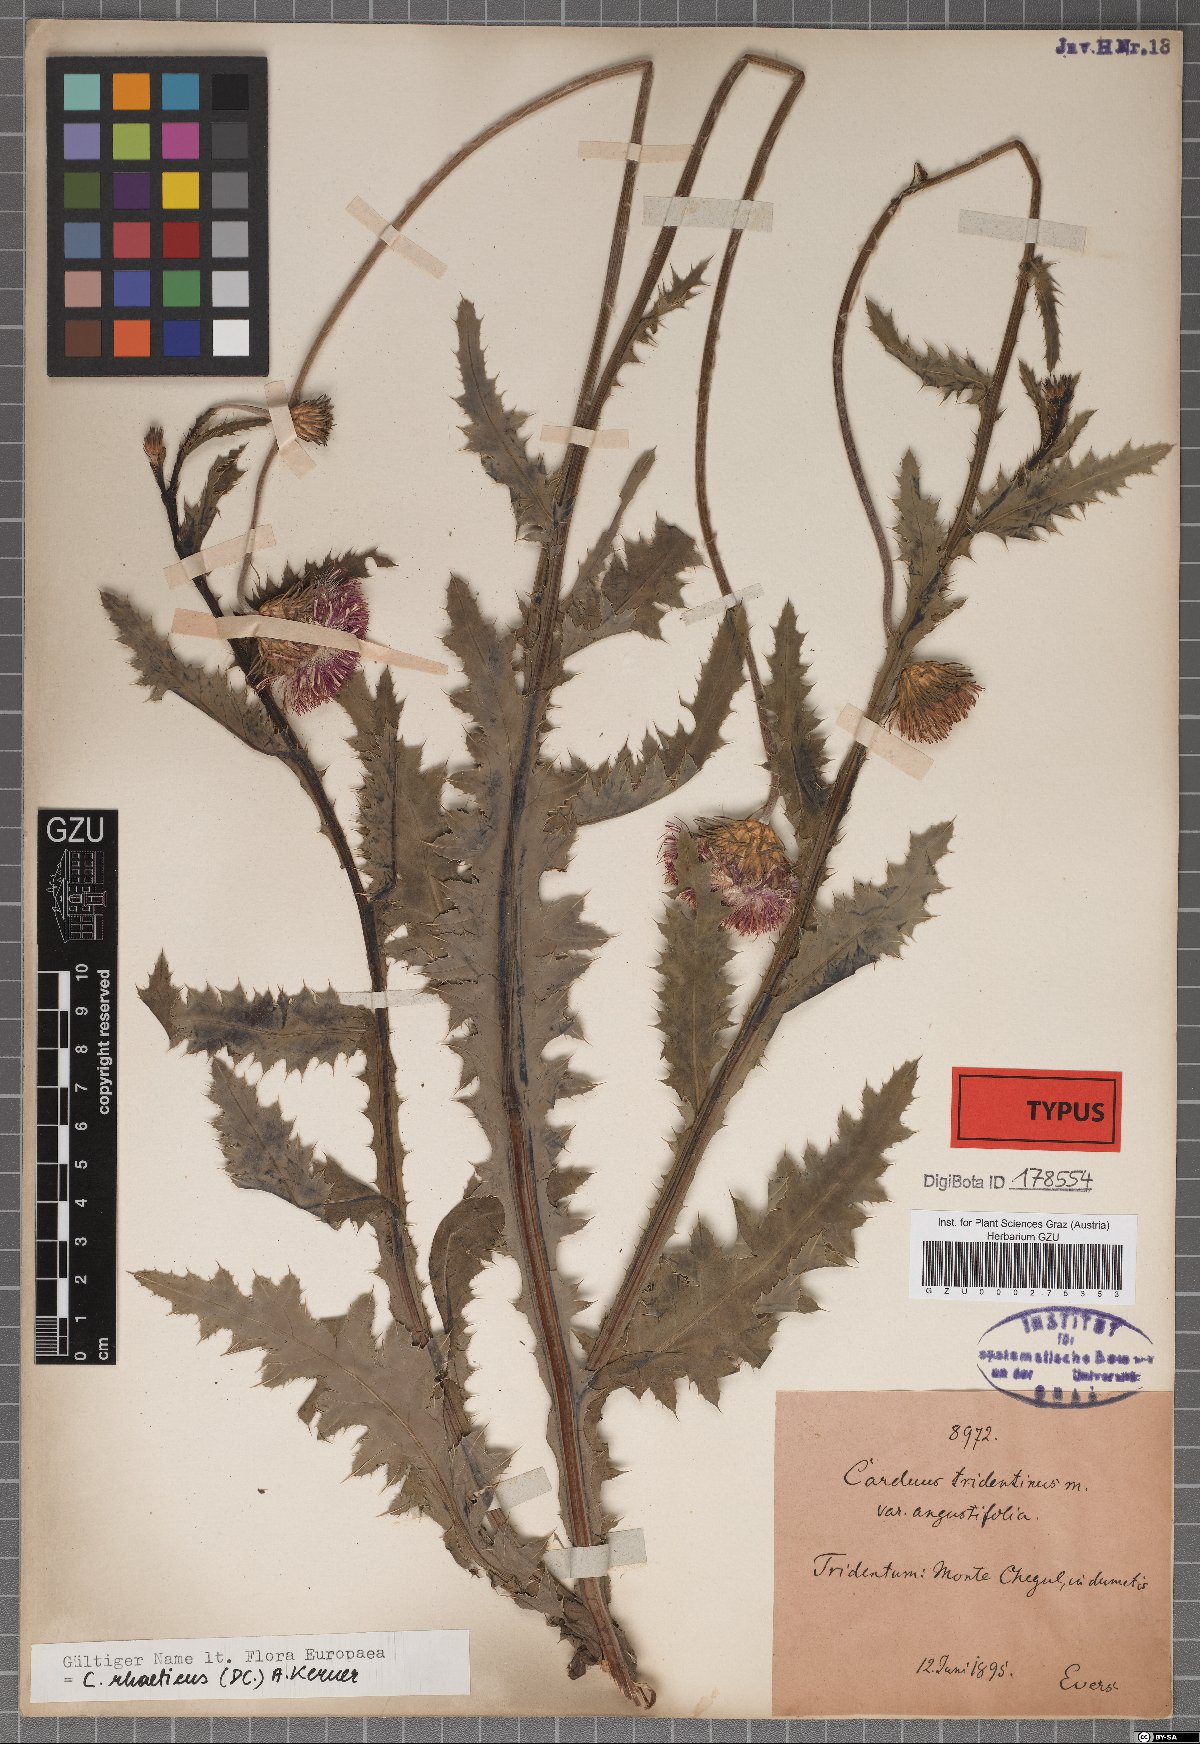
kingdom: Plantae
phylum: Tracheophyta
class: Magnoliopsida
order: Asterales
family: Asteraceae
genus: Carduus
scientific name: Carduus defloratus
